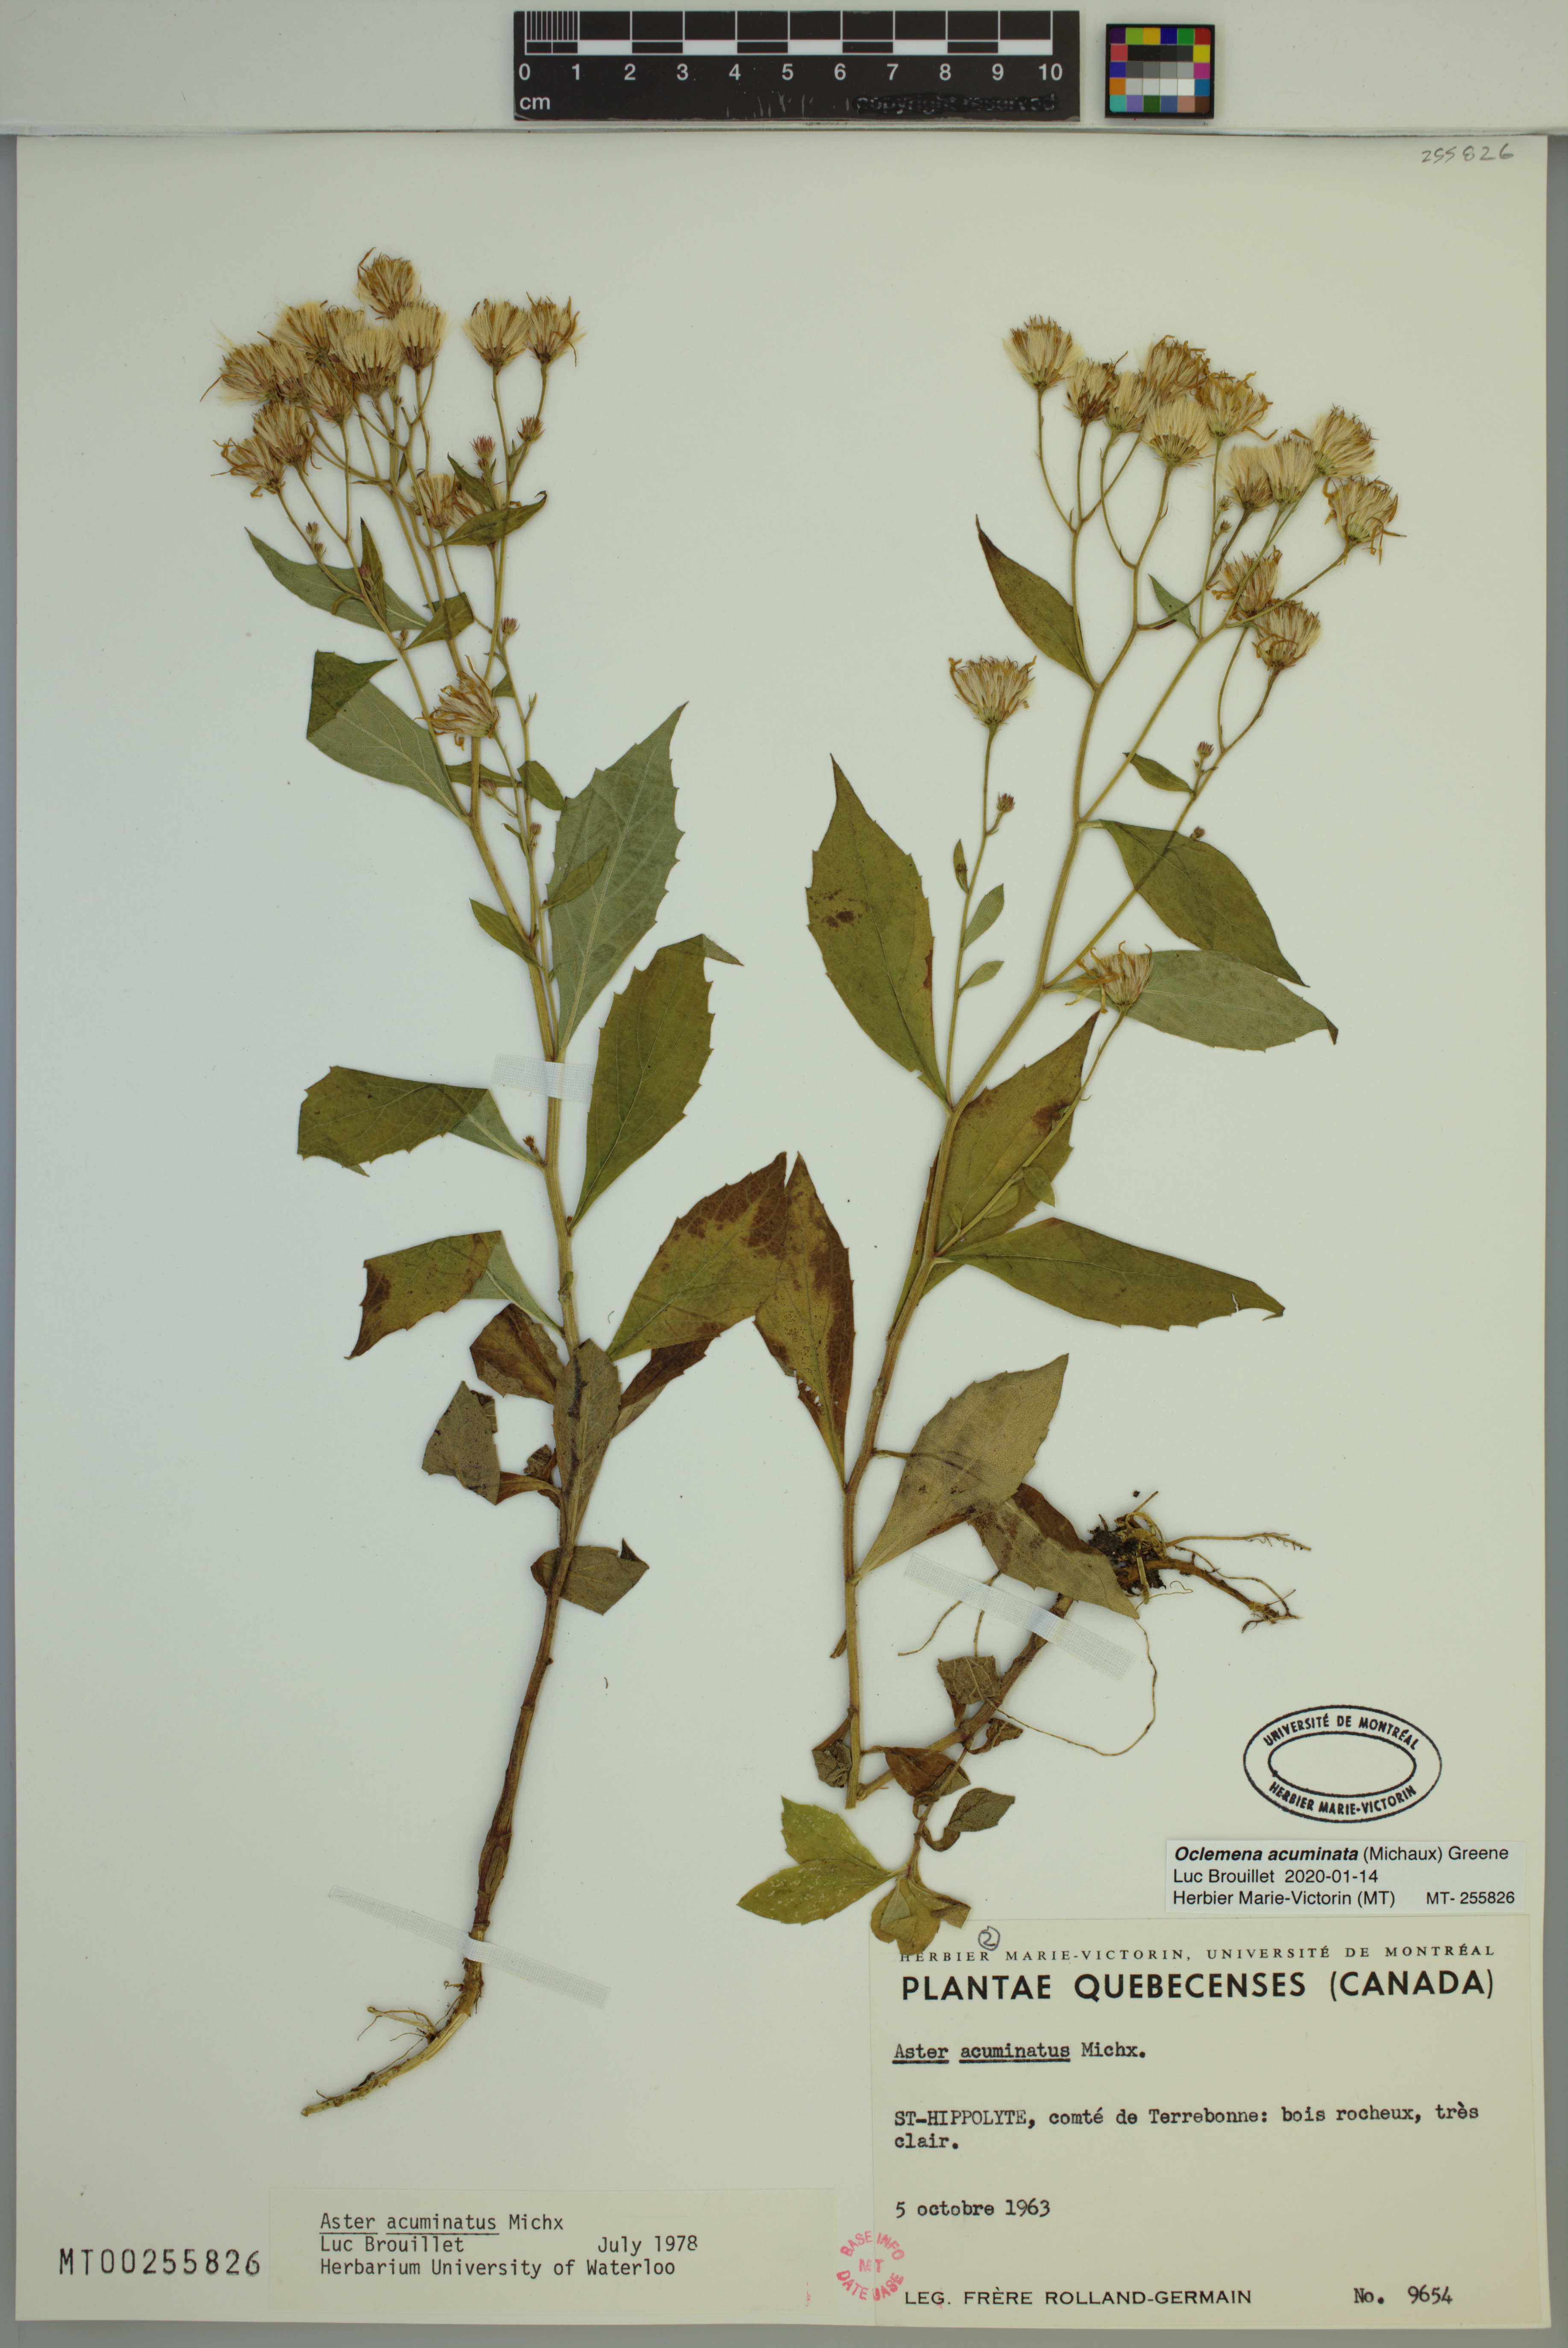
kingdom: Plantae
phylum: Tracheophyta
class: Magnoliopsida
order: Asterales
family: Asteraceae
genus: Oclemena
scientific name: Oclemena acuminata
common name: Mountain aster
